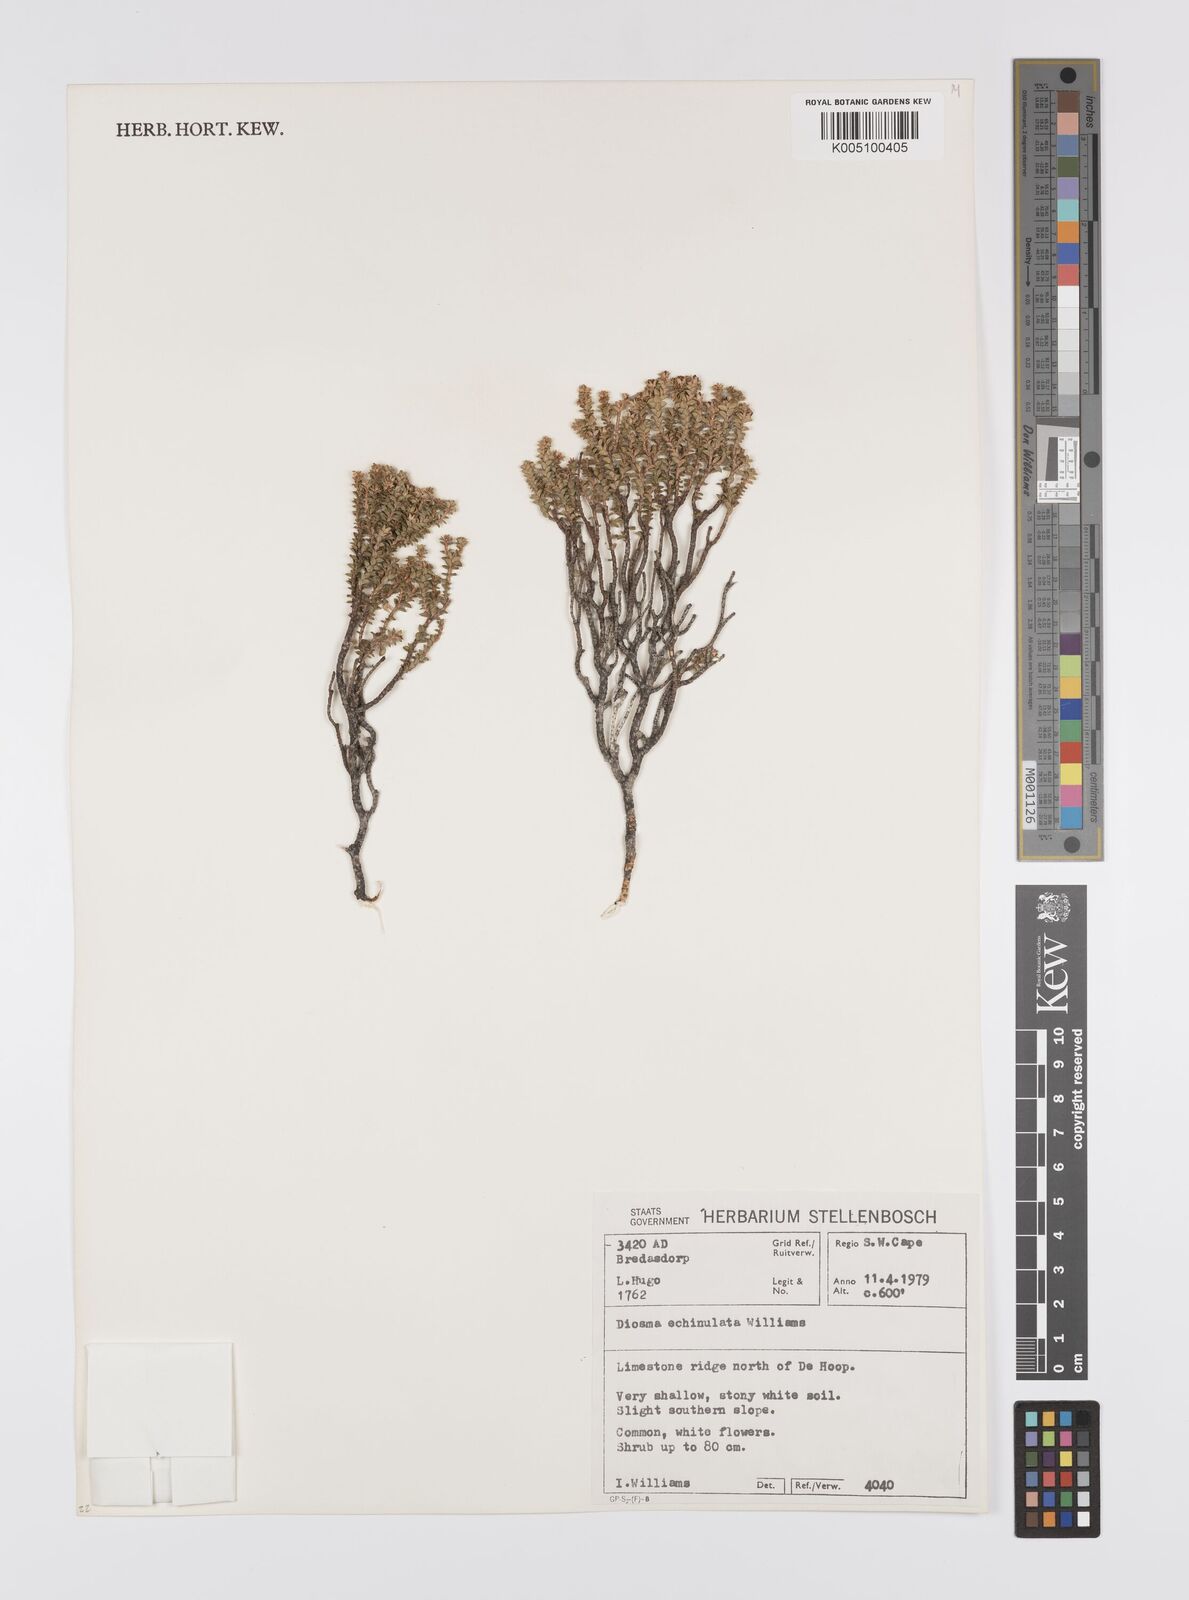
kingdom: Plantae
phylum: Tracheophyta
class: Magnoliopsida
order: Sapindales
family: Rutaceae
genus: Diosma
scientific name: Diosma echinulata
